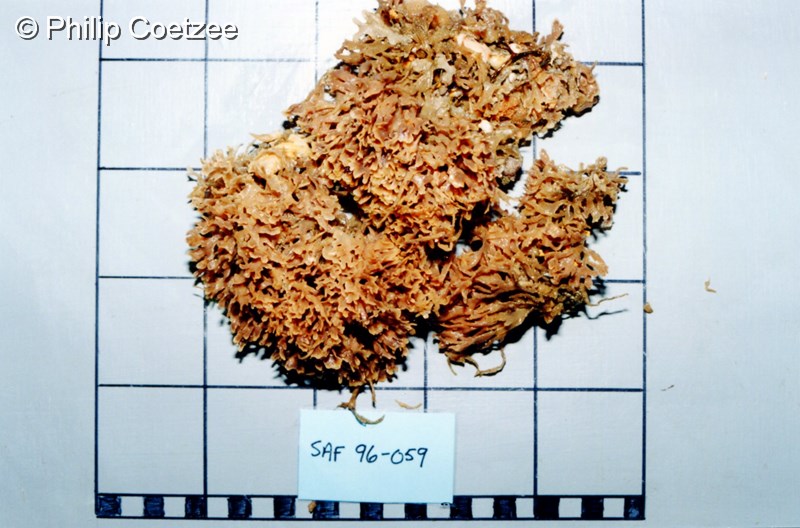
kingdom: Animalia
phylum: Bryozoa
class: Gymnolaemata
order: Cheilostomatida
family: Flustridae
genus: Gregarinidra
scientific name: Gregarinidra spinuligera
